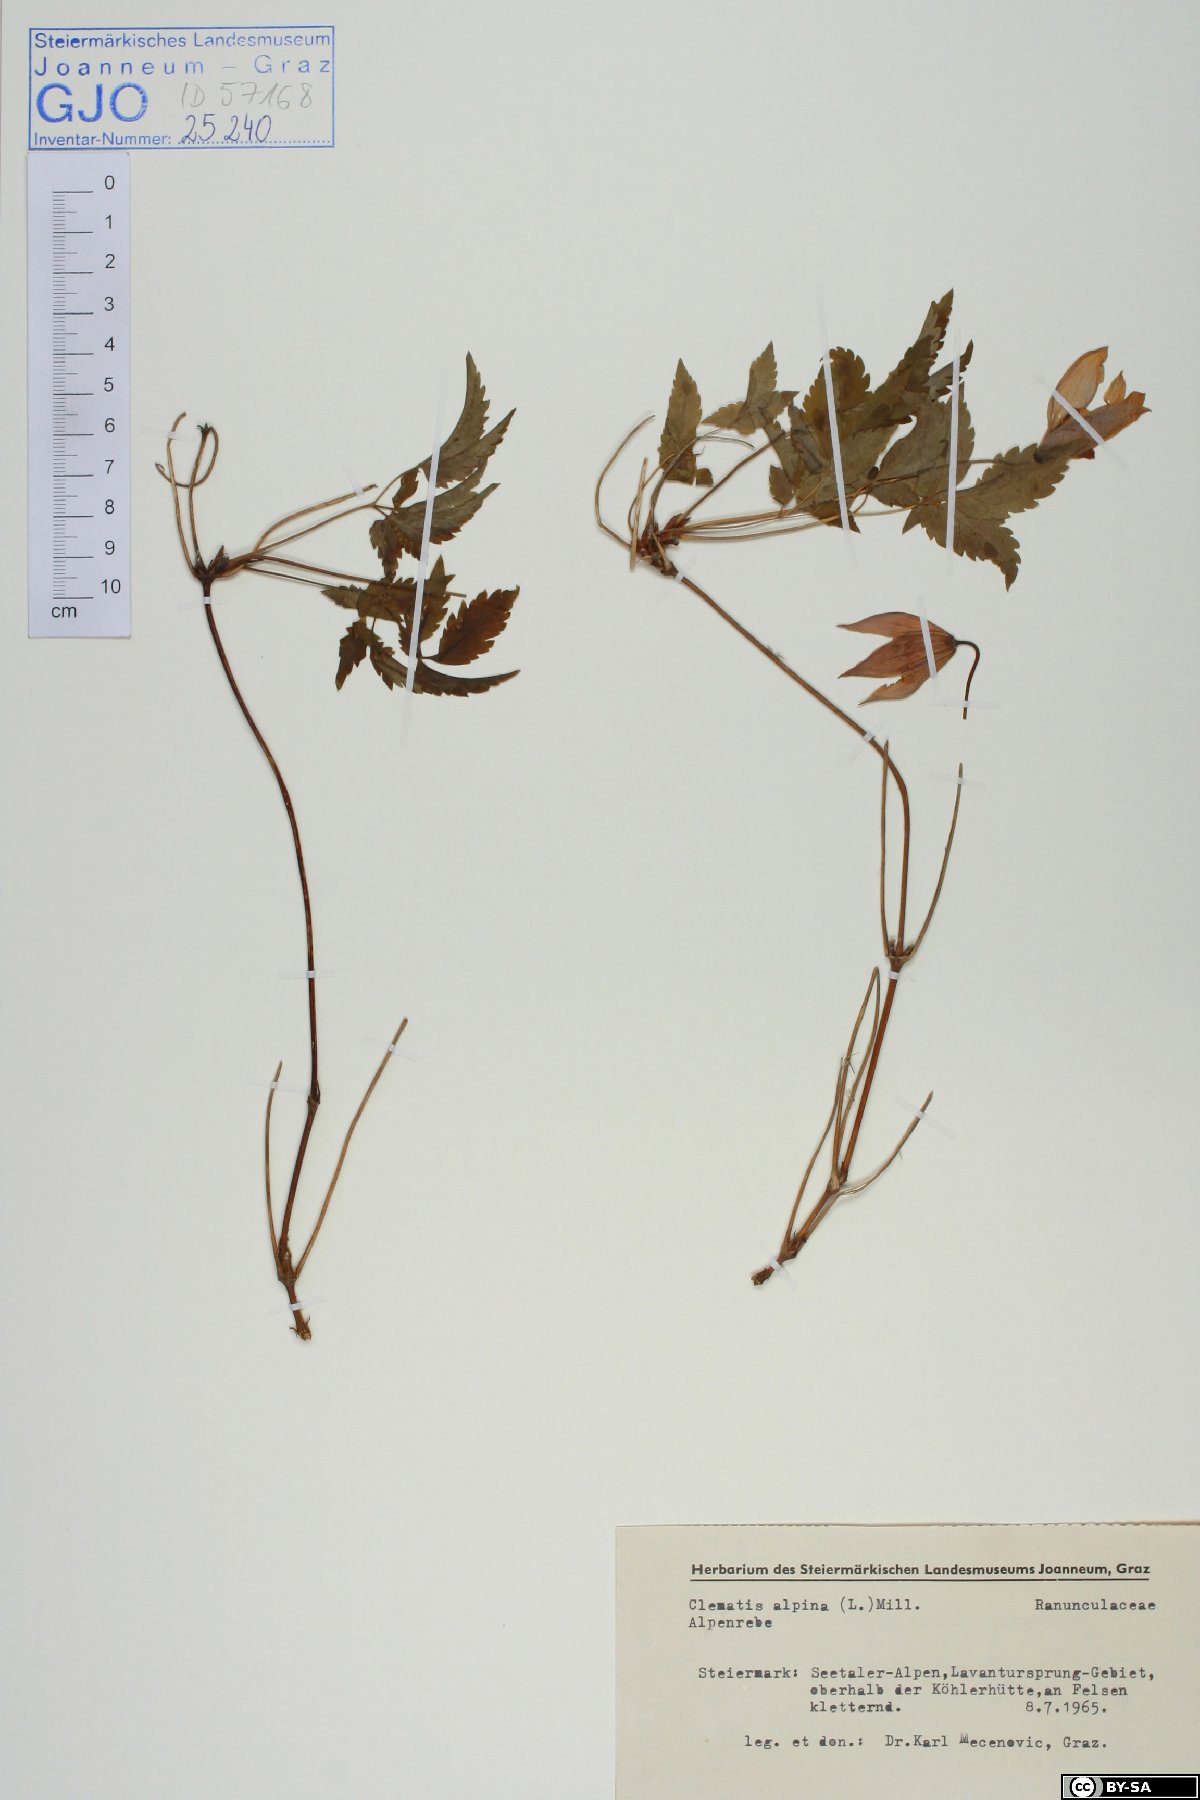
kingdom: Plantae
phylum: Tracheophyta
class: Magnoliopsida
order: Ranunculales
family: Ranunculaceae
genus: Clematis
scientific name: Clematis alpina
